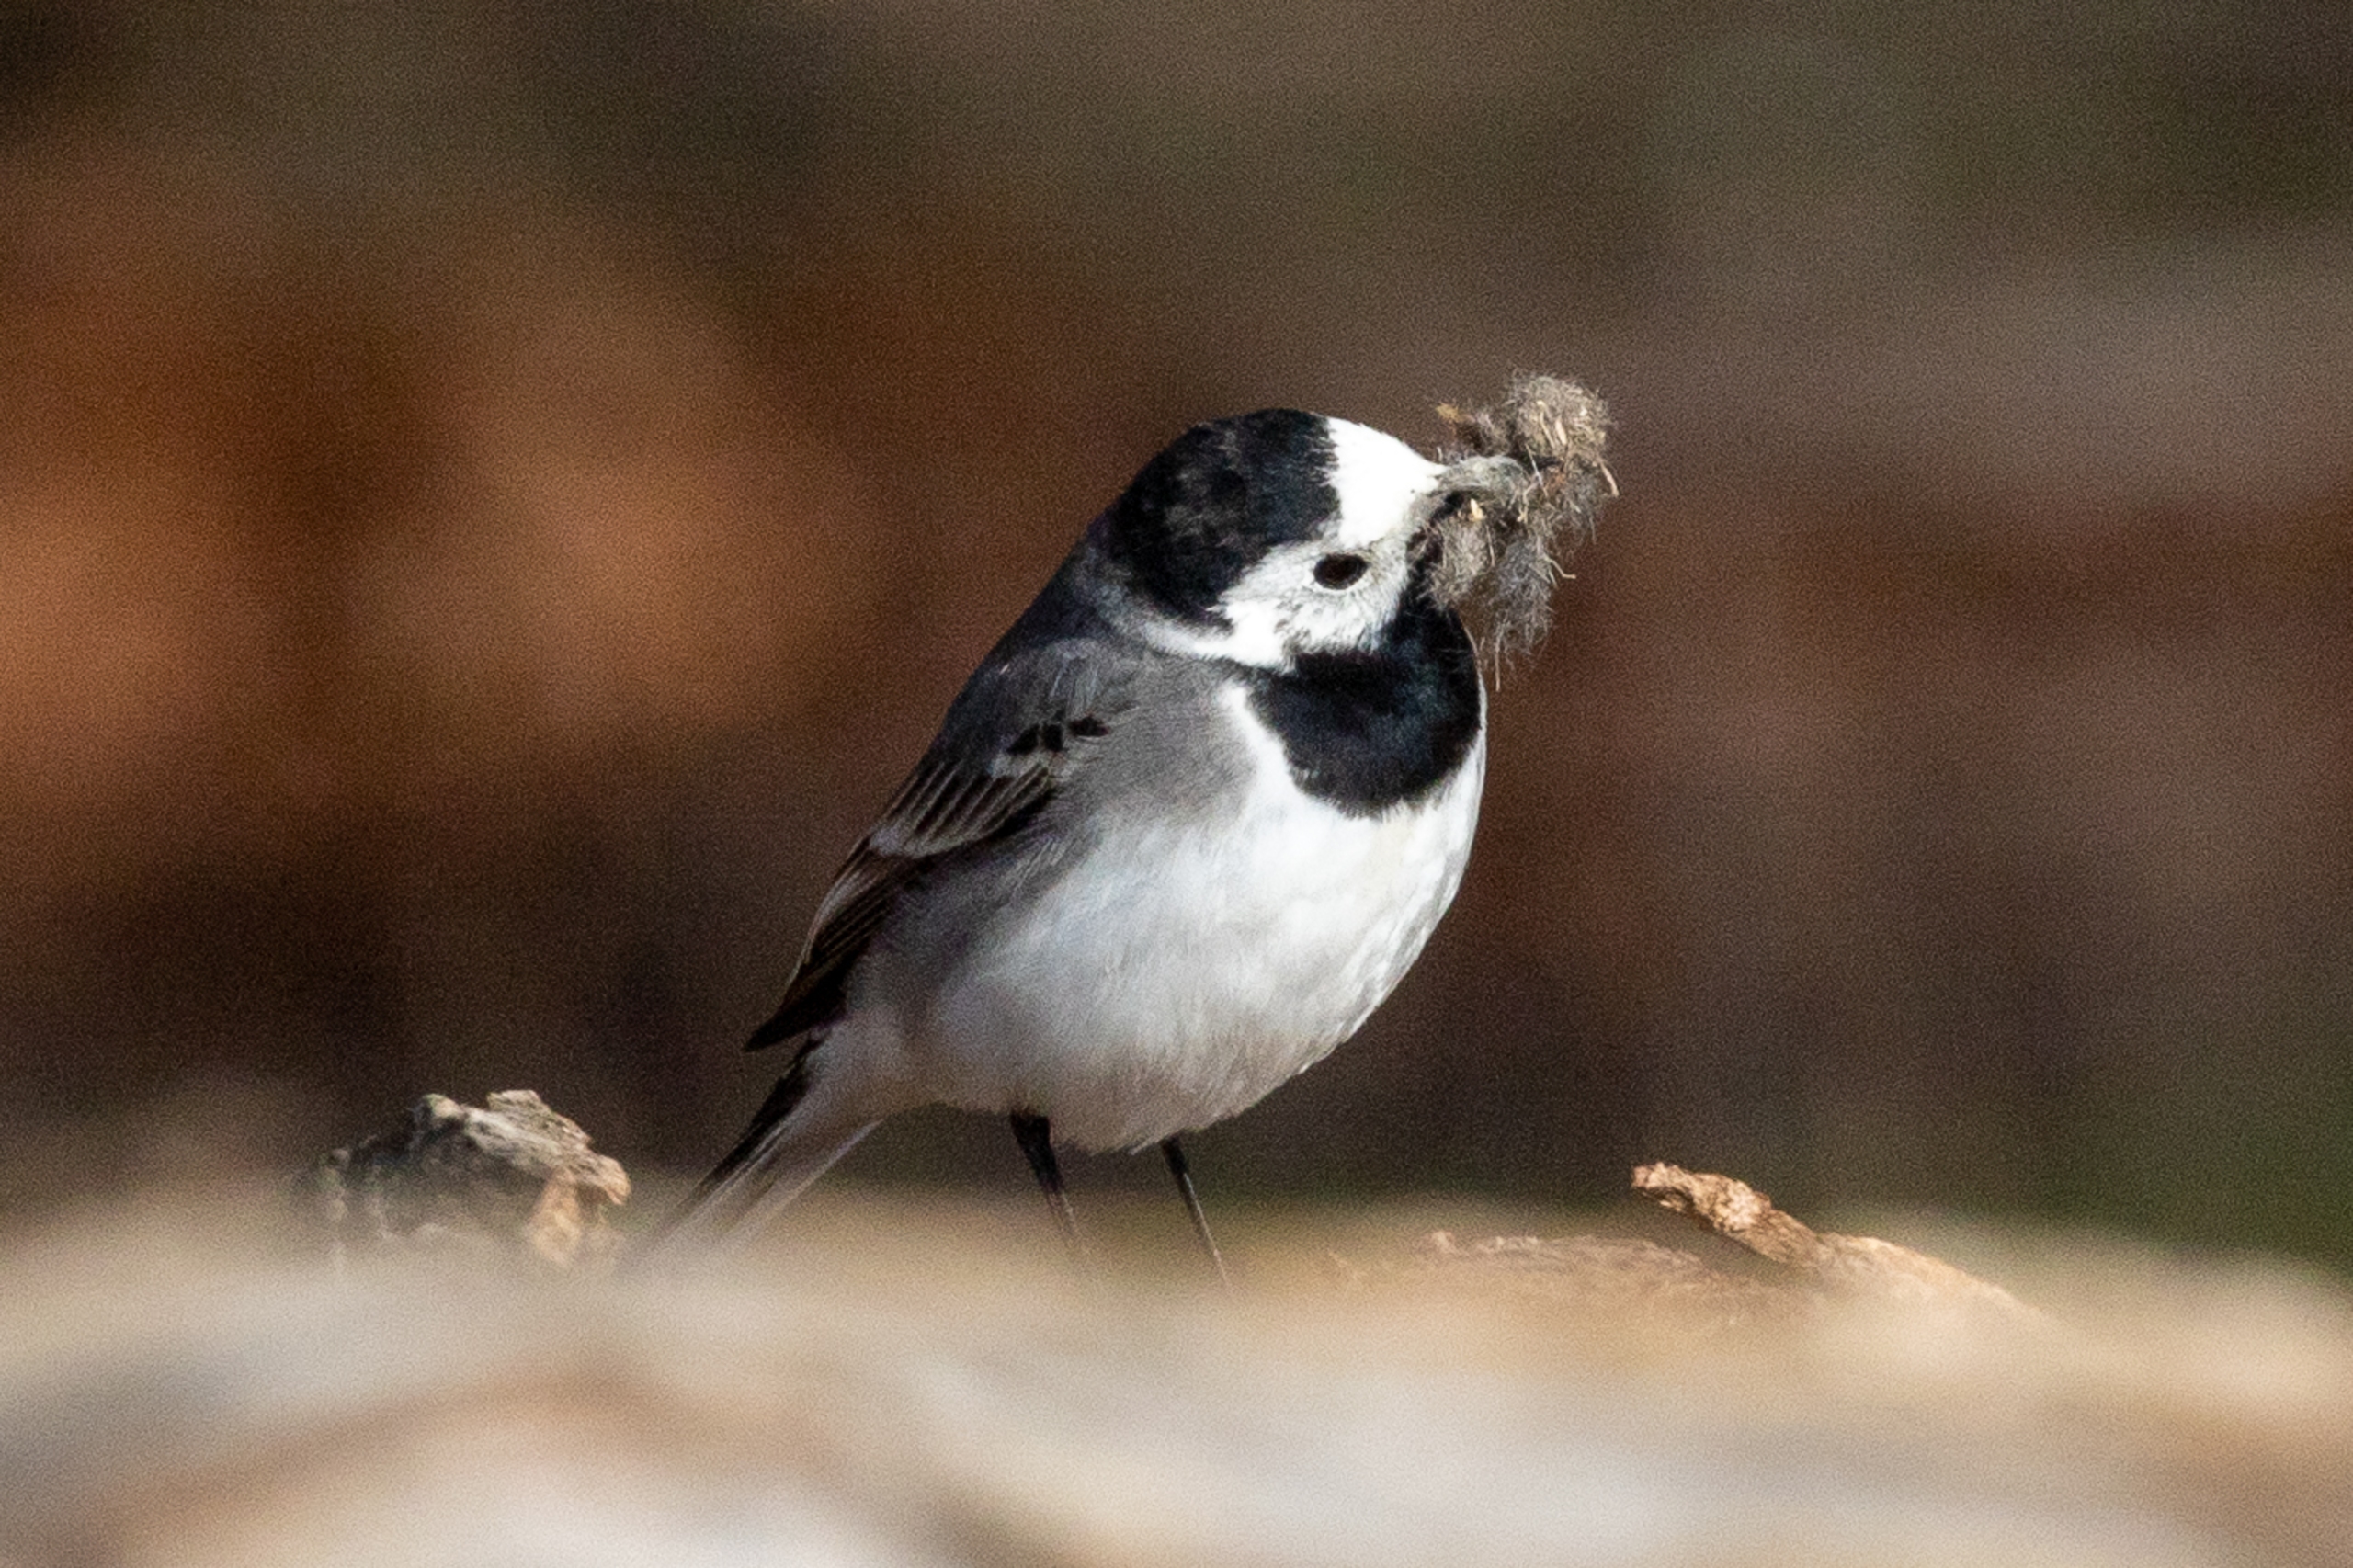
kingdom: Animalia
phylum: Chordata
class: Aves
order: Passeriformes
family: Motacillidae
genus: Motacilla
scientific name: Motacilla alba
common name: Hvid vipstjert
